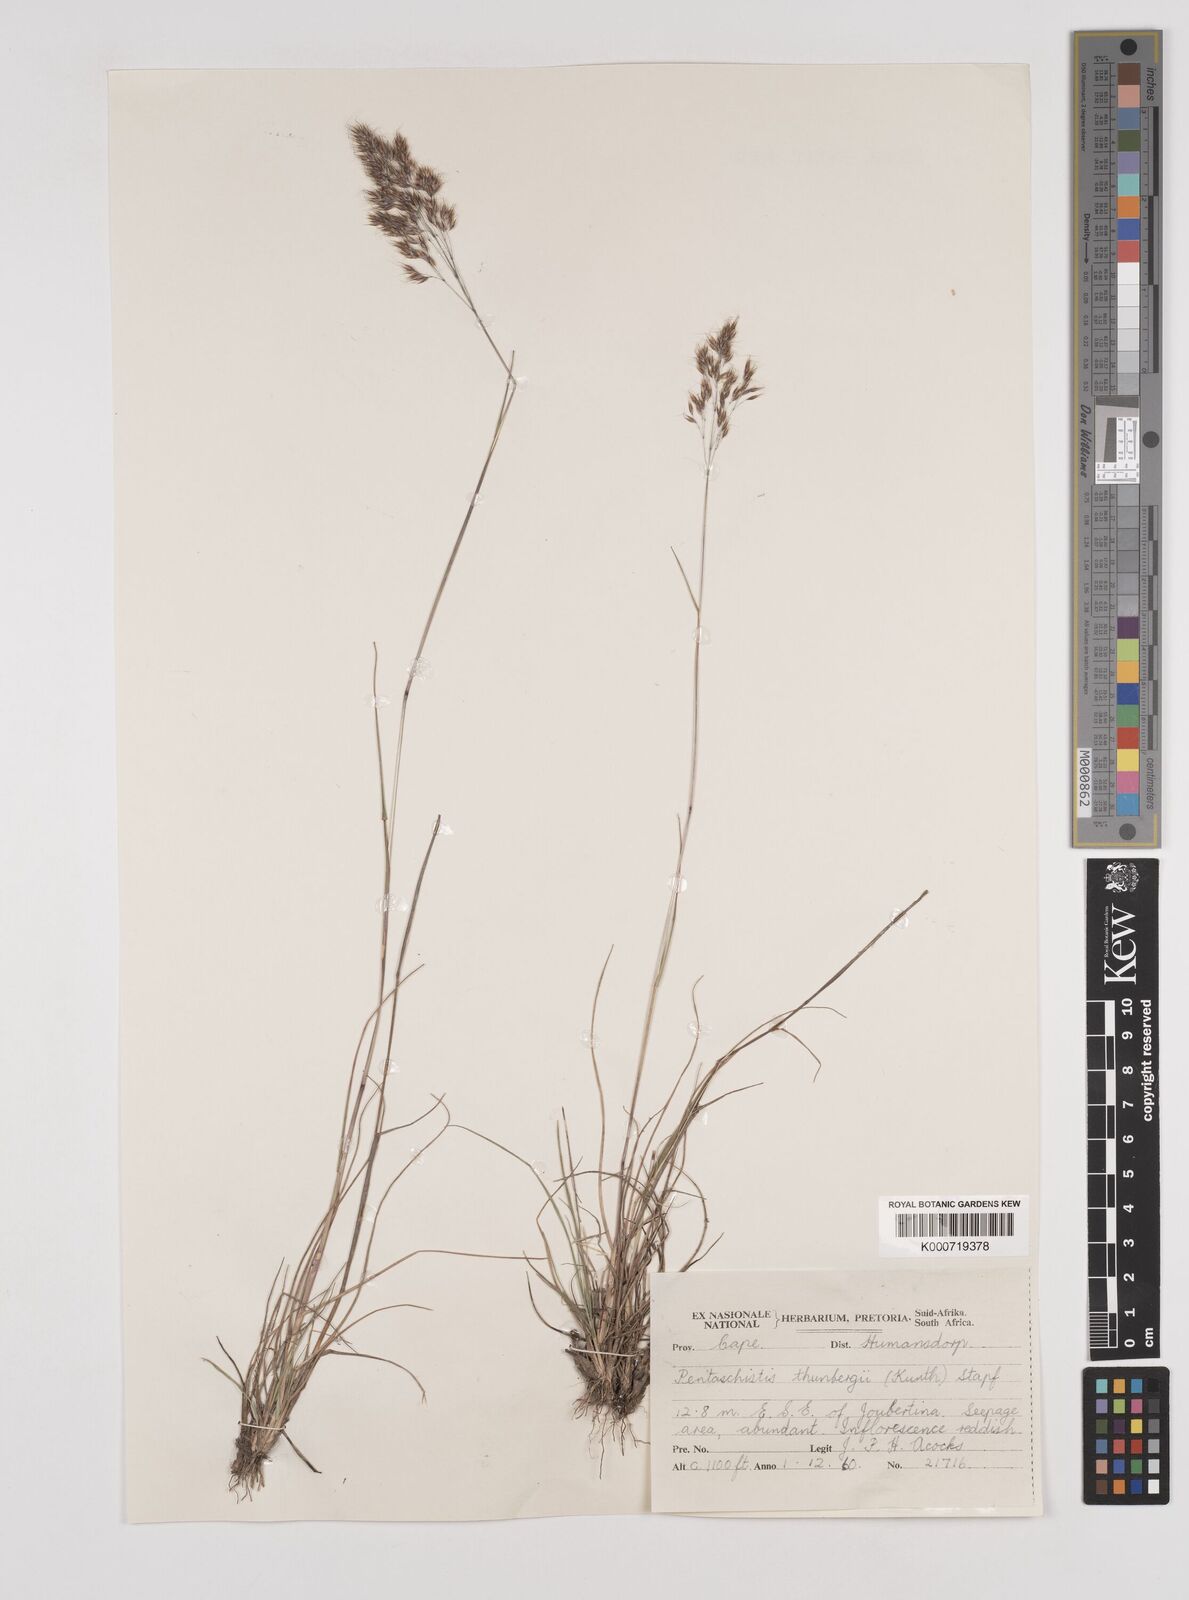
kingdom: Plantae
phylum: Tracheophyta
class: Liliopsida
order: Poales
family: Poaceae
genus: Pentameris
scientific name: Pentameris triseta
